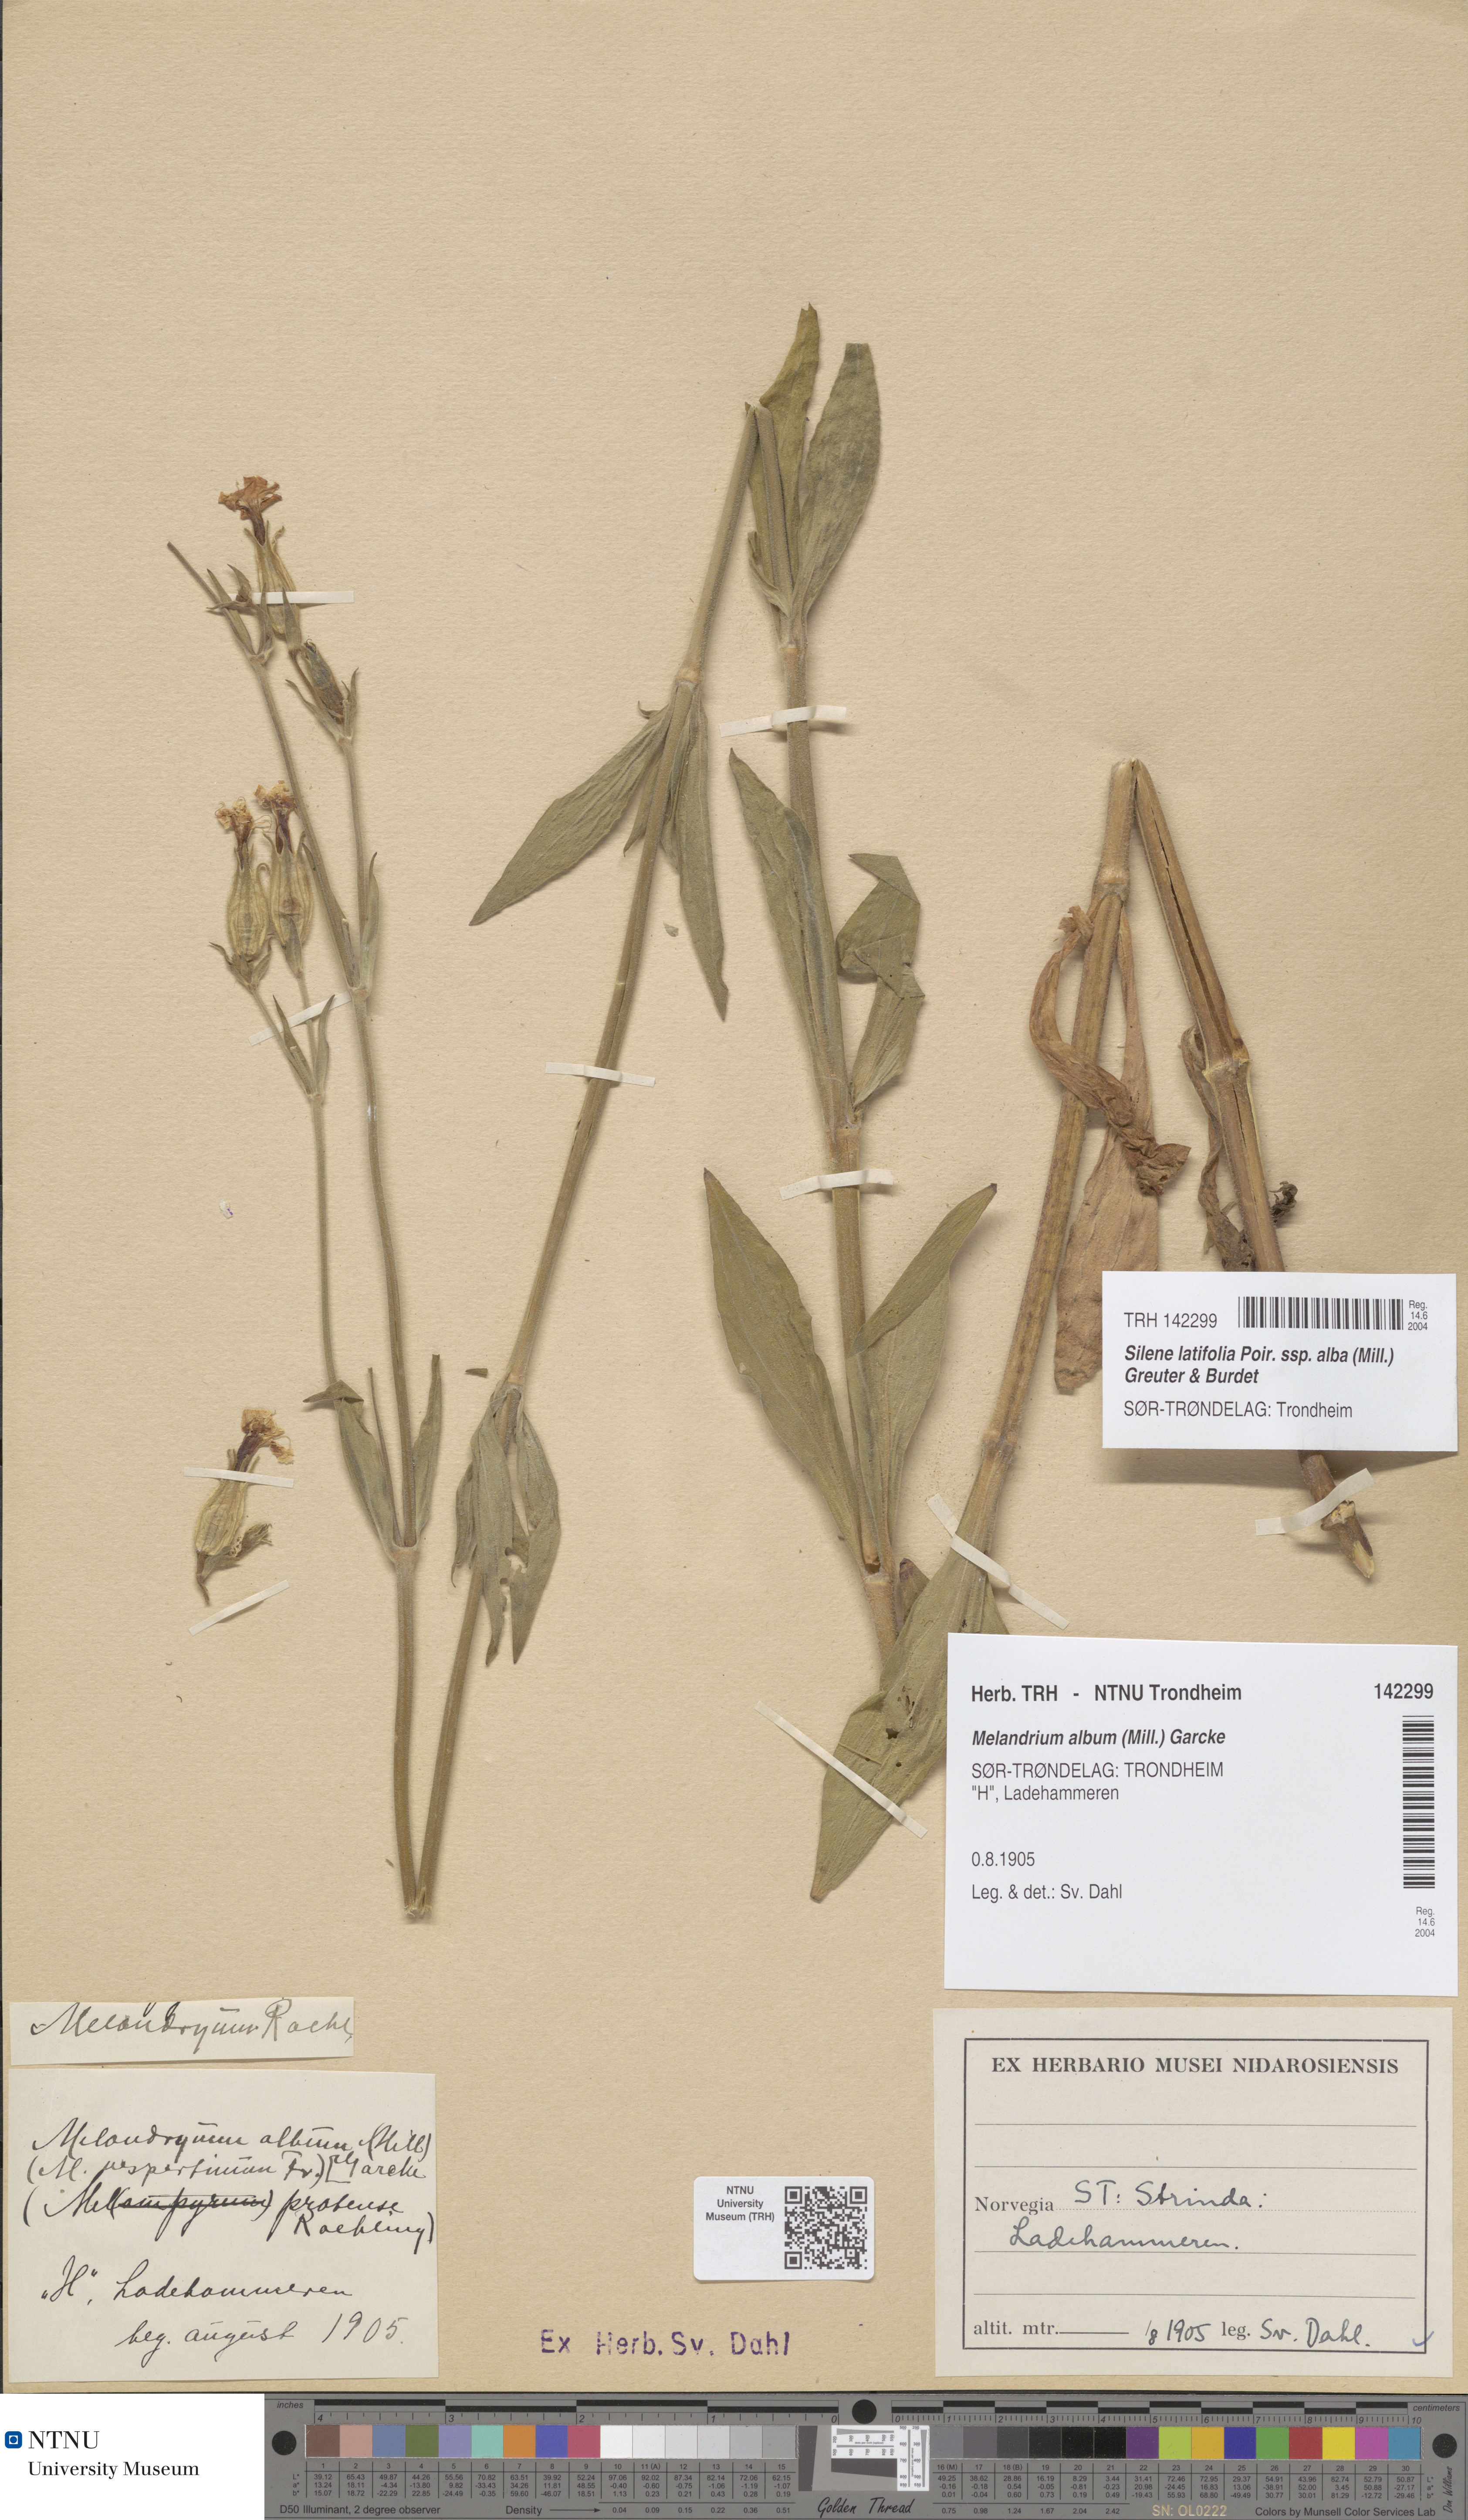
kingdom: Plantae
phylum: Tracheophyta
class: Magnoliopsida
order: Caryophyllales
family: Caryophyllaceae
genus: Silene
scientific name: Silene latifolia
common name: White campion
